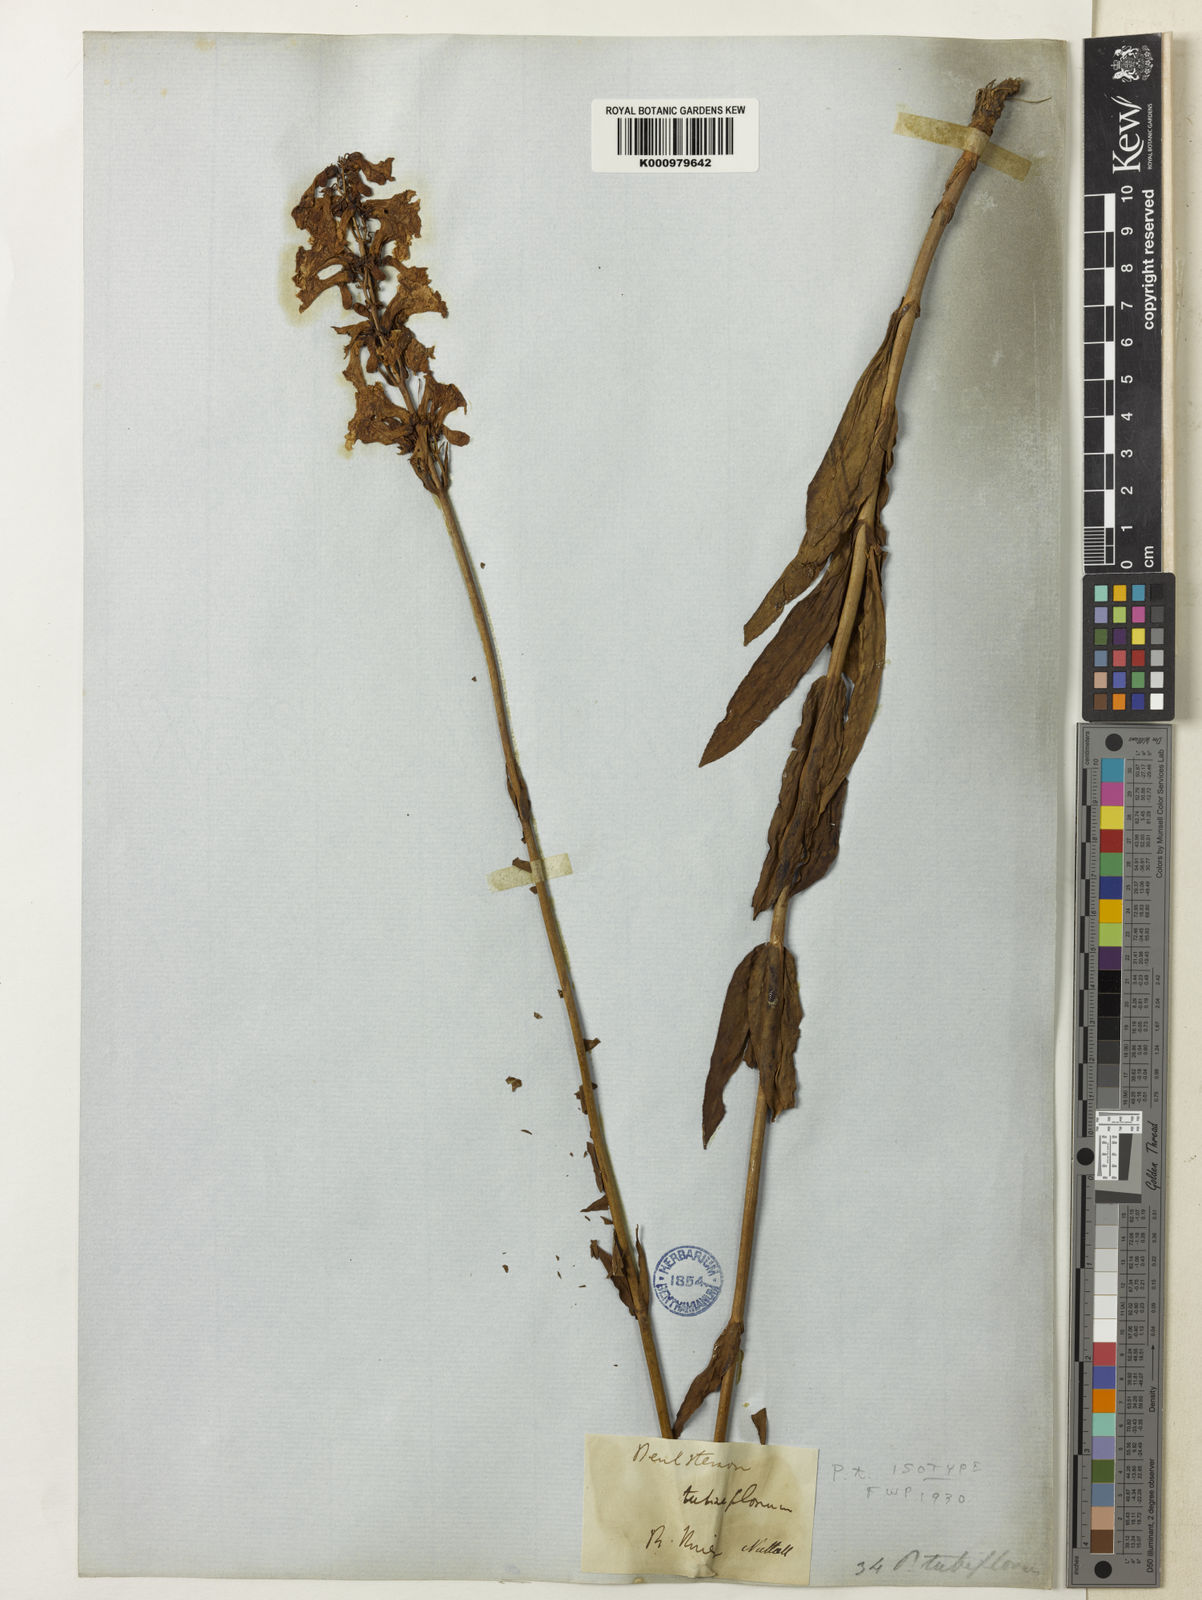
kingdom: Plantae
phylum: Tracheophyta
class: Magnoliopsida
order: Lamiales
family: Plantaginaceae
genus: Penstemon
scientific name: Penstemon tubaeflorus
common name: White wand beardtongue
